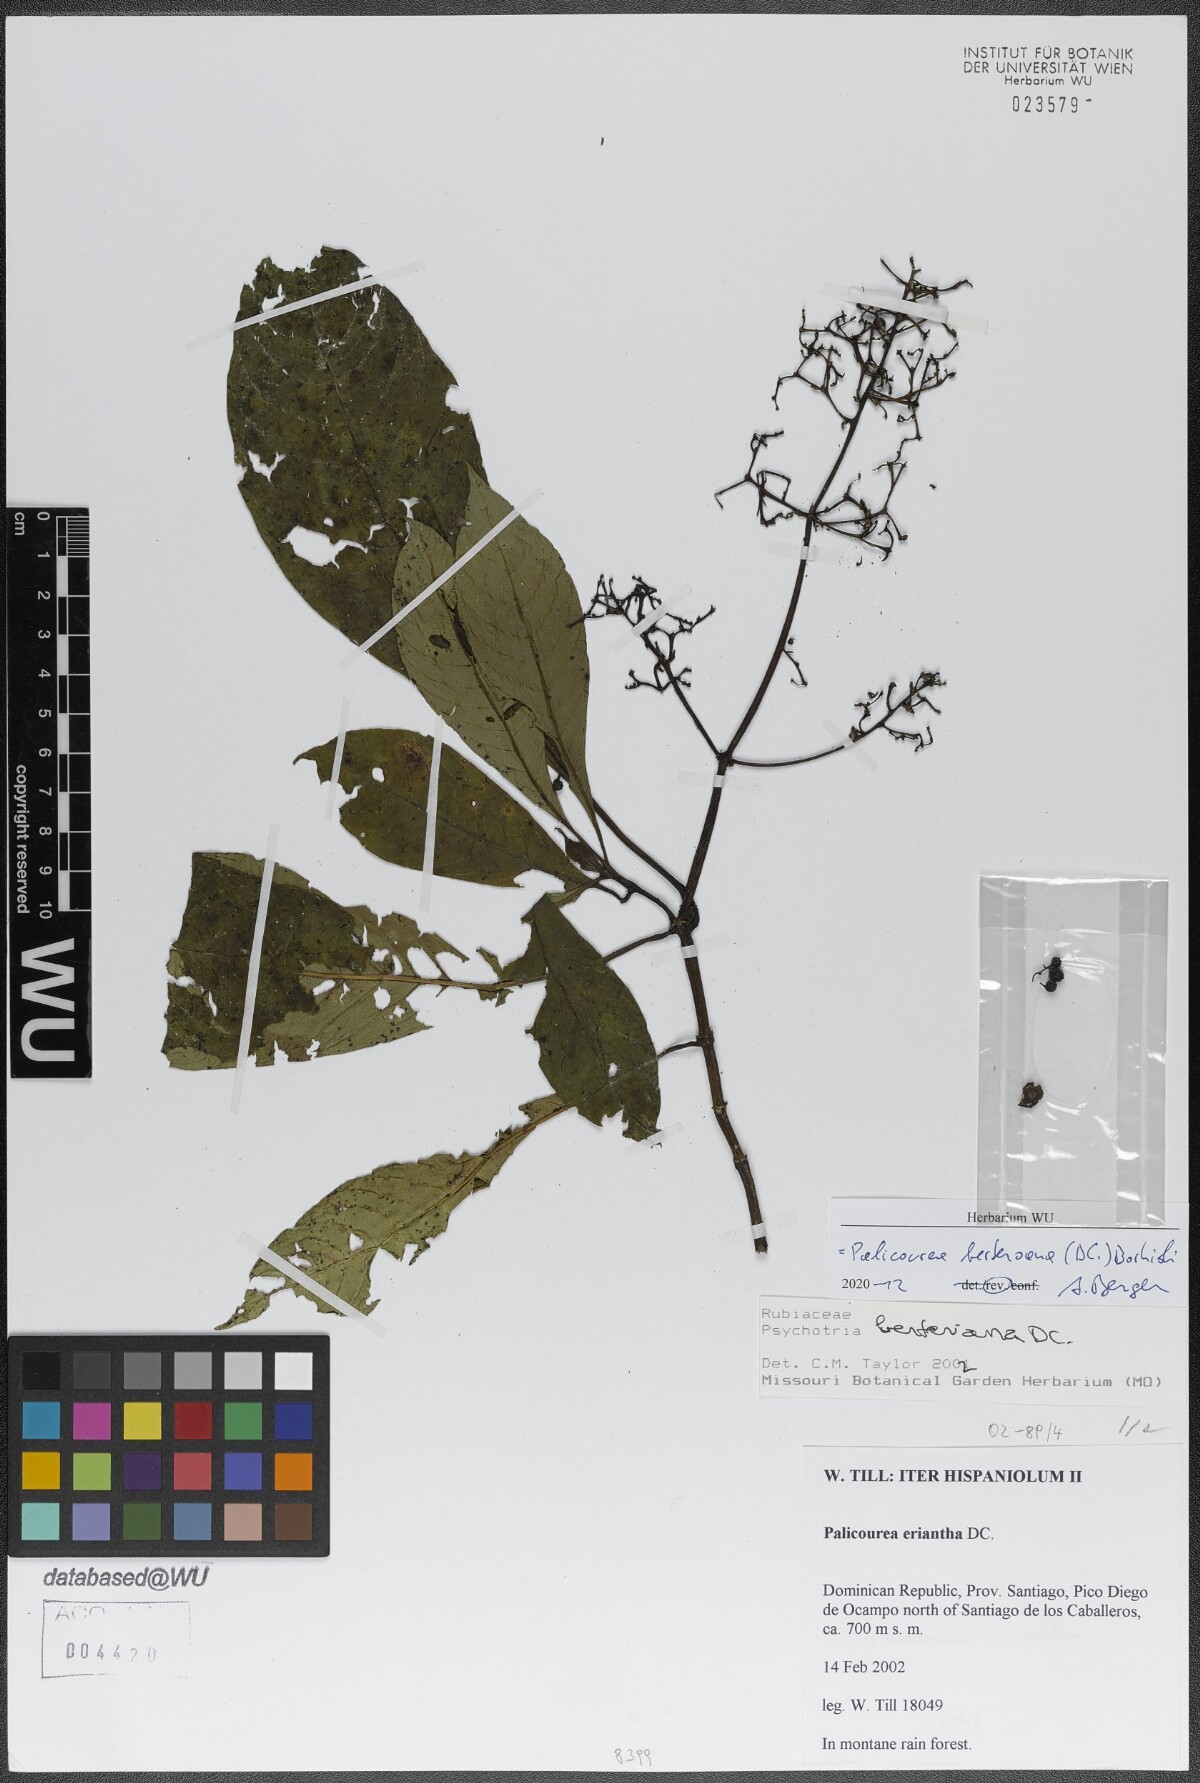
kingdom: Plantae
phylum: Tracheophyta
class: Magnoliopsida
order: Gentianales
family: Rubiaceae
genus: Palicourea
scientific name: Palicourea berteroana
